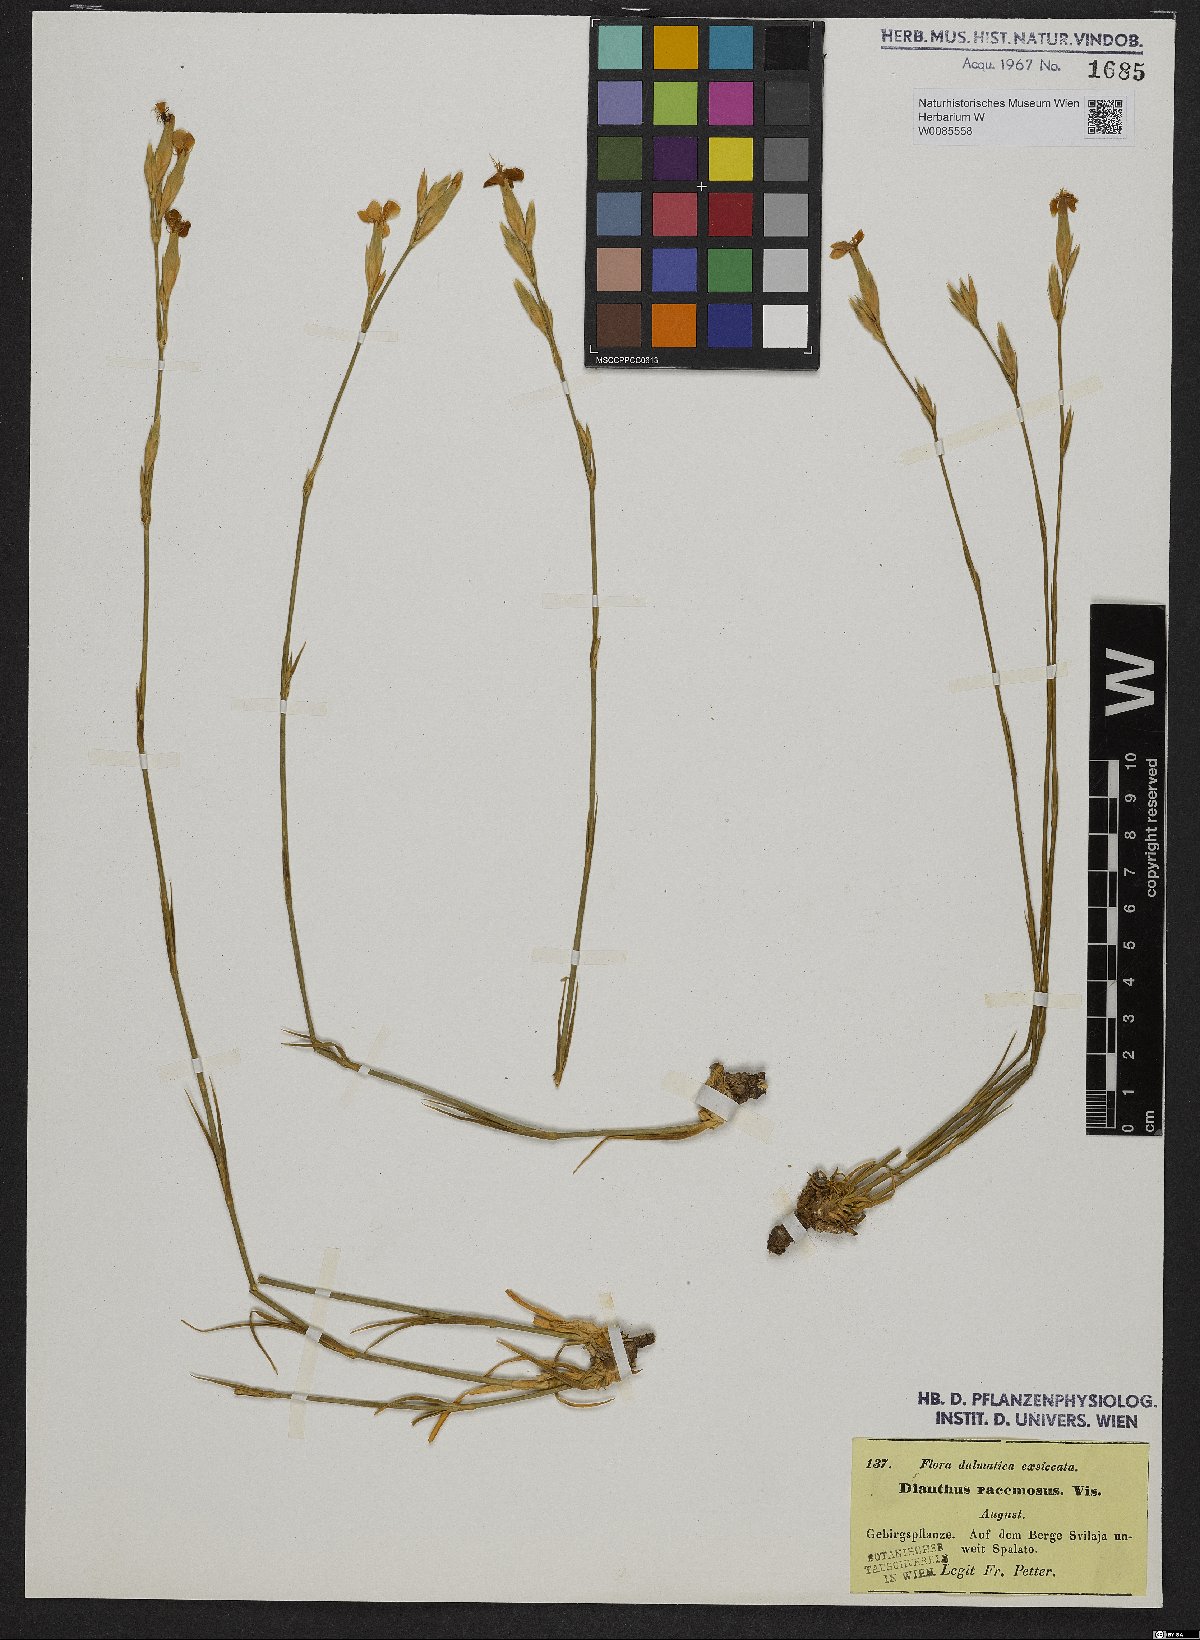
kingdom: Plantae
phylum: Tracheophyta
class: Magnoliopsida
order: Caryophyllales
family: Caryophyllaceae
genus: Dianthus
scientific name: Dianthus ciliatus
